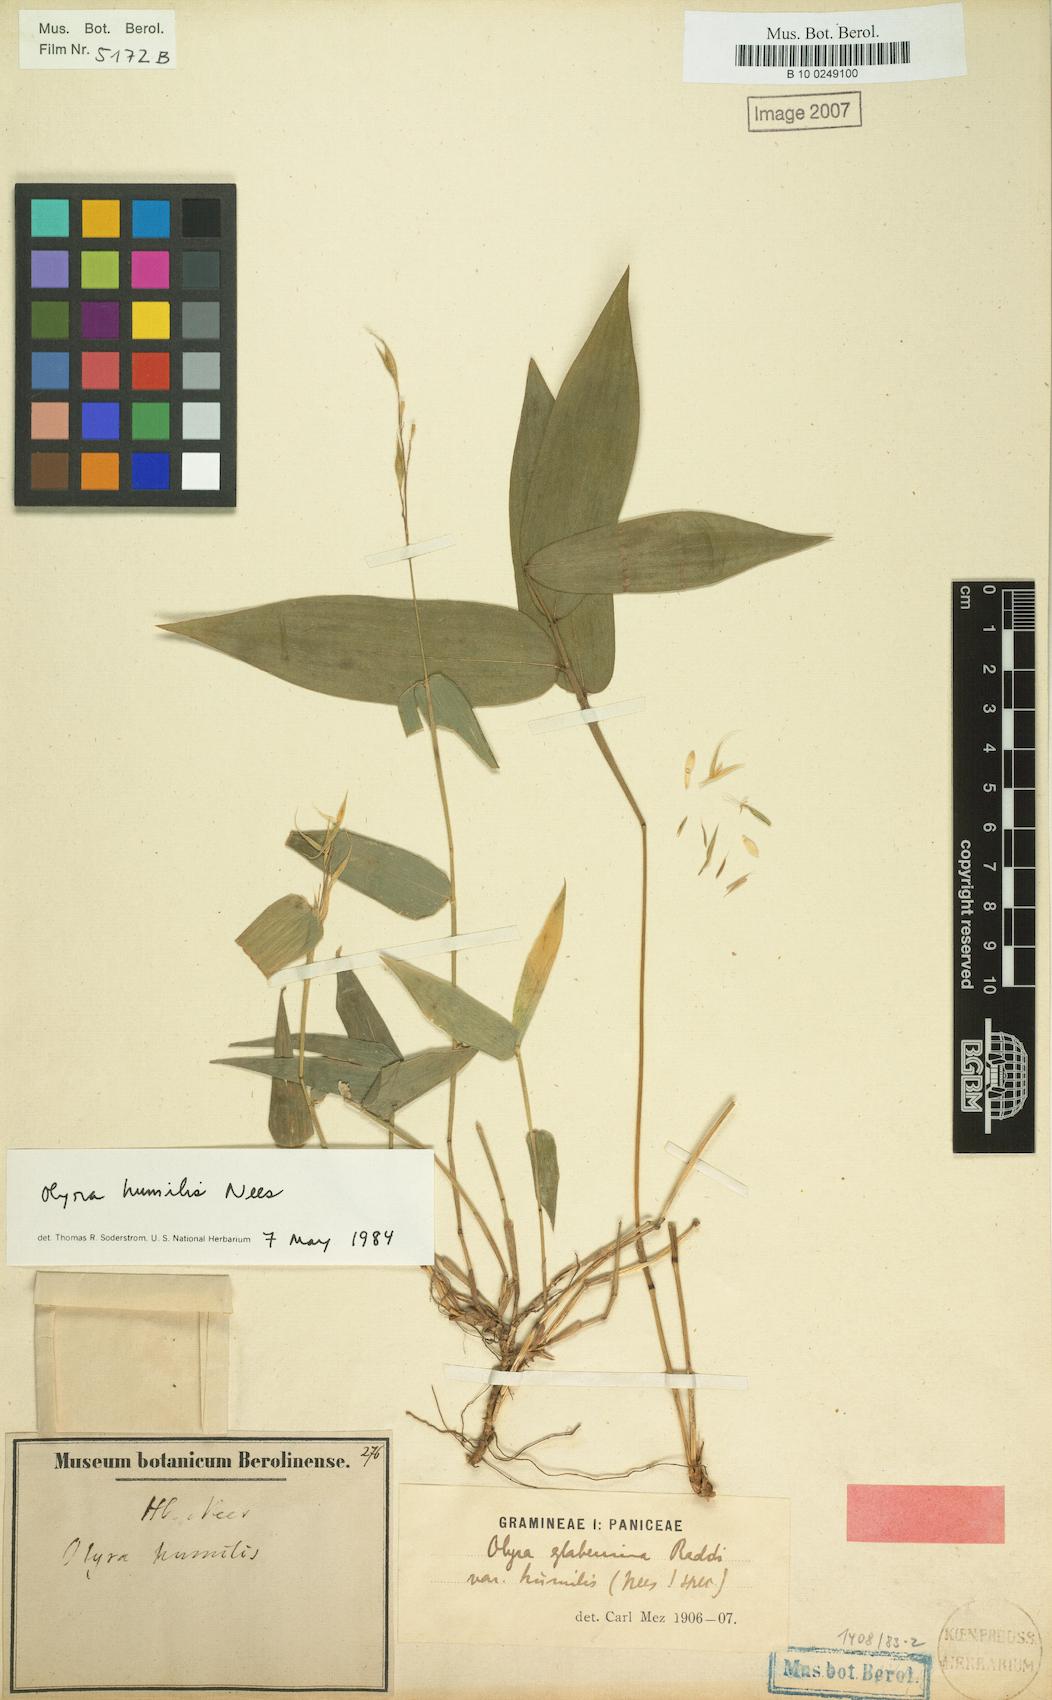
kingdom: Plantae
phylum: Tracheophyta
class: Liliopsida
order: Poales
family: Poaceae
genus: Olyra
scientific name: Olyra humilis
